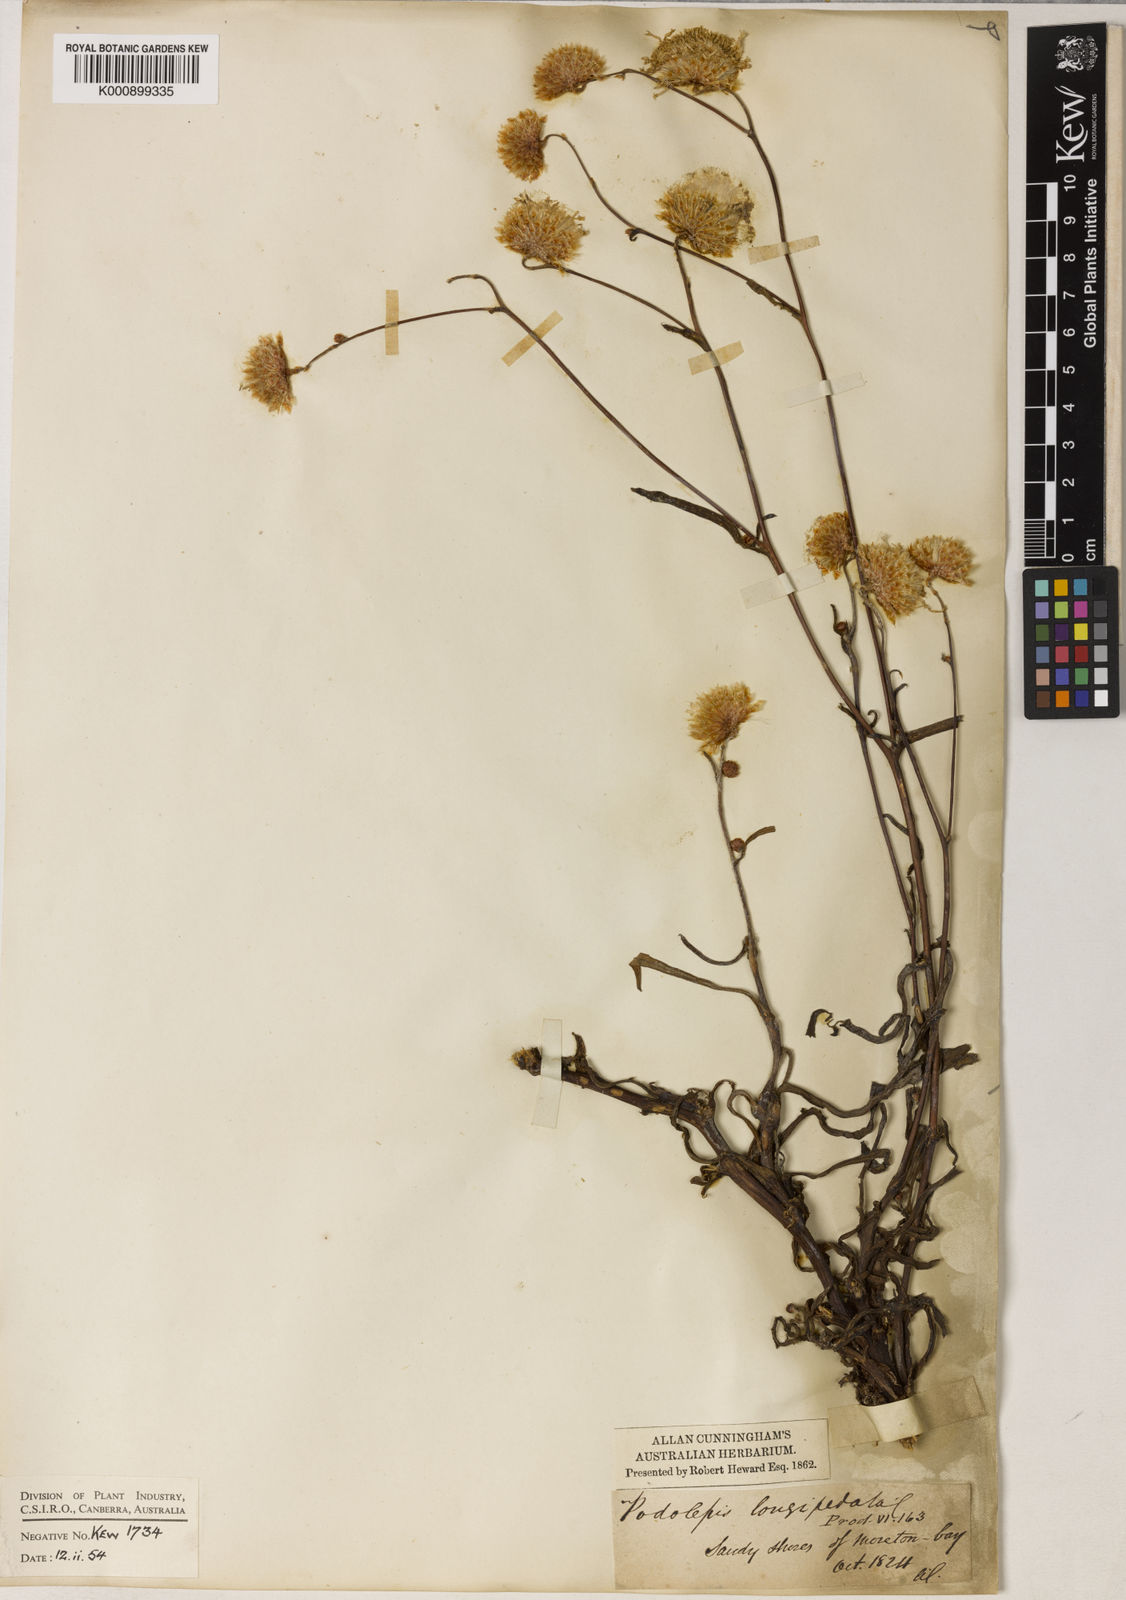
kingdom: Plantae
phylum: Tracheophyta
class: Magnoliopsida
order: Asterales
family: Asteraceae
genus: Podolepis
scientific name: Podolepis longipedata
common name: Tall copper-wire-daisy
